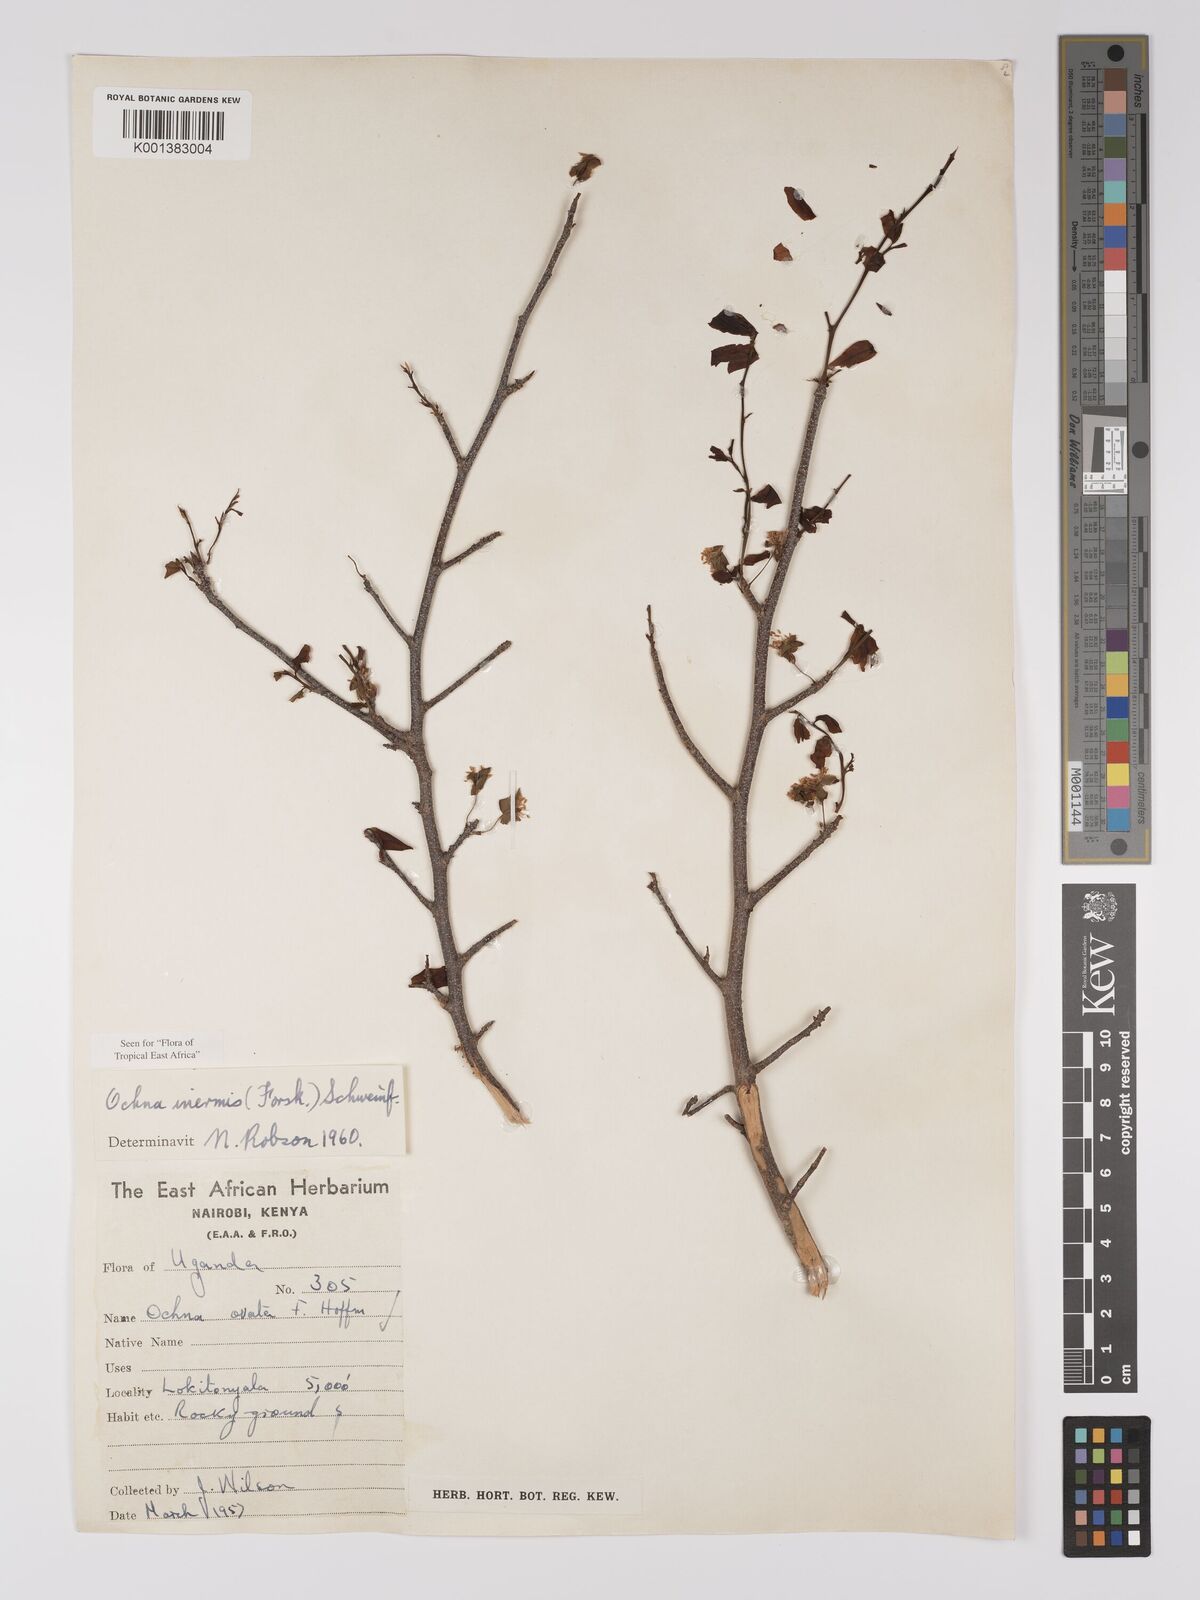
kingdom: Plantae
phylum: Tracheophyta
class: Magnoliopsida
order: Malpighiales
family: Ochnaceae
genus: Ochna
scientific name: Ochna inermis
